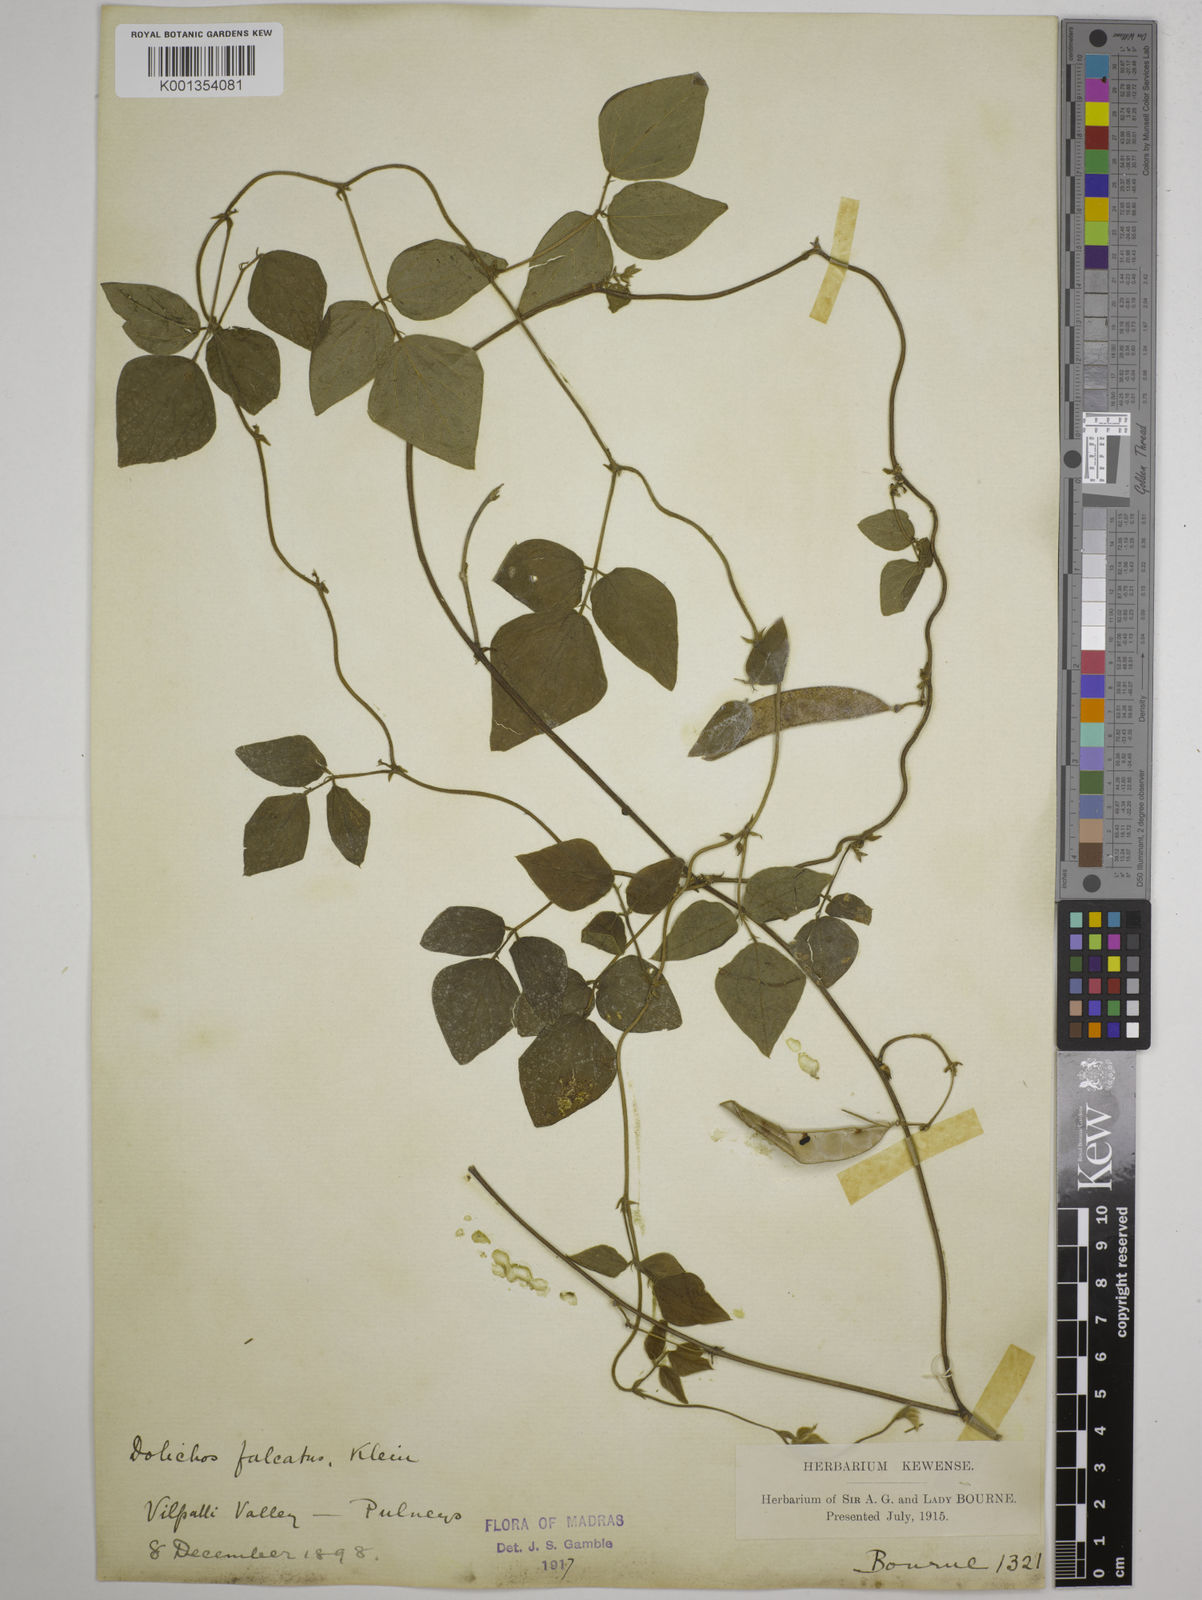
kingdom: Plantae
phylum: Tracheophyta
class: Magnoliopsida
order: Fabales
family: Fabaceae
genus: Dolichos
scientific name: Dolichos
